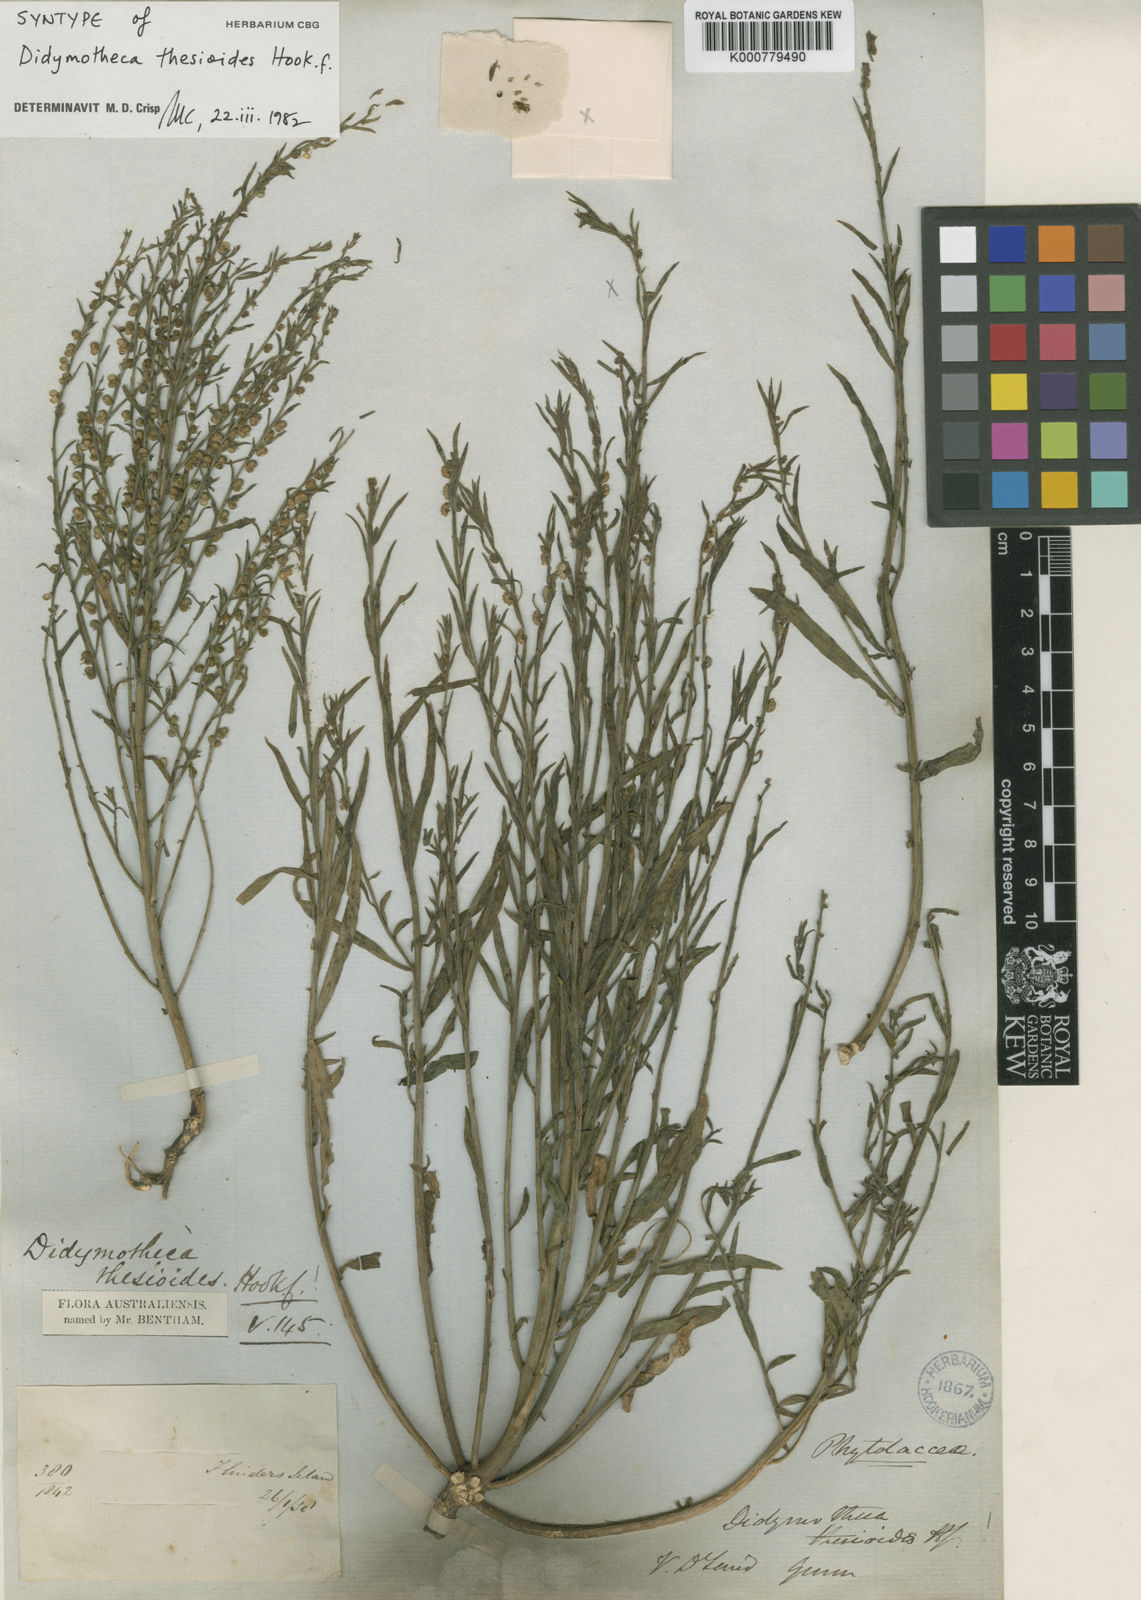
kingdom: Plantae
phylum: Tracheophyta
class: Magnoliopsida
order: Brassicales
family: Gyrostemonaceae
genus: Gyrostemon
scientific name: Gyrostemon thesioides
